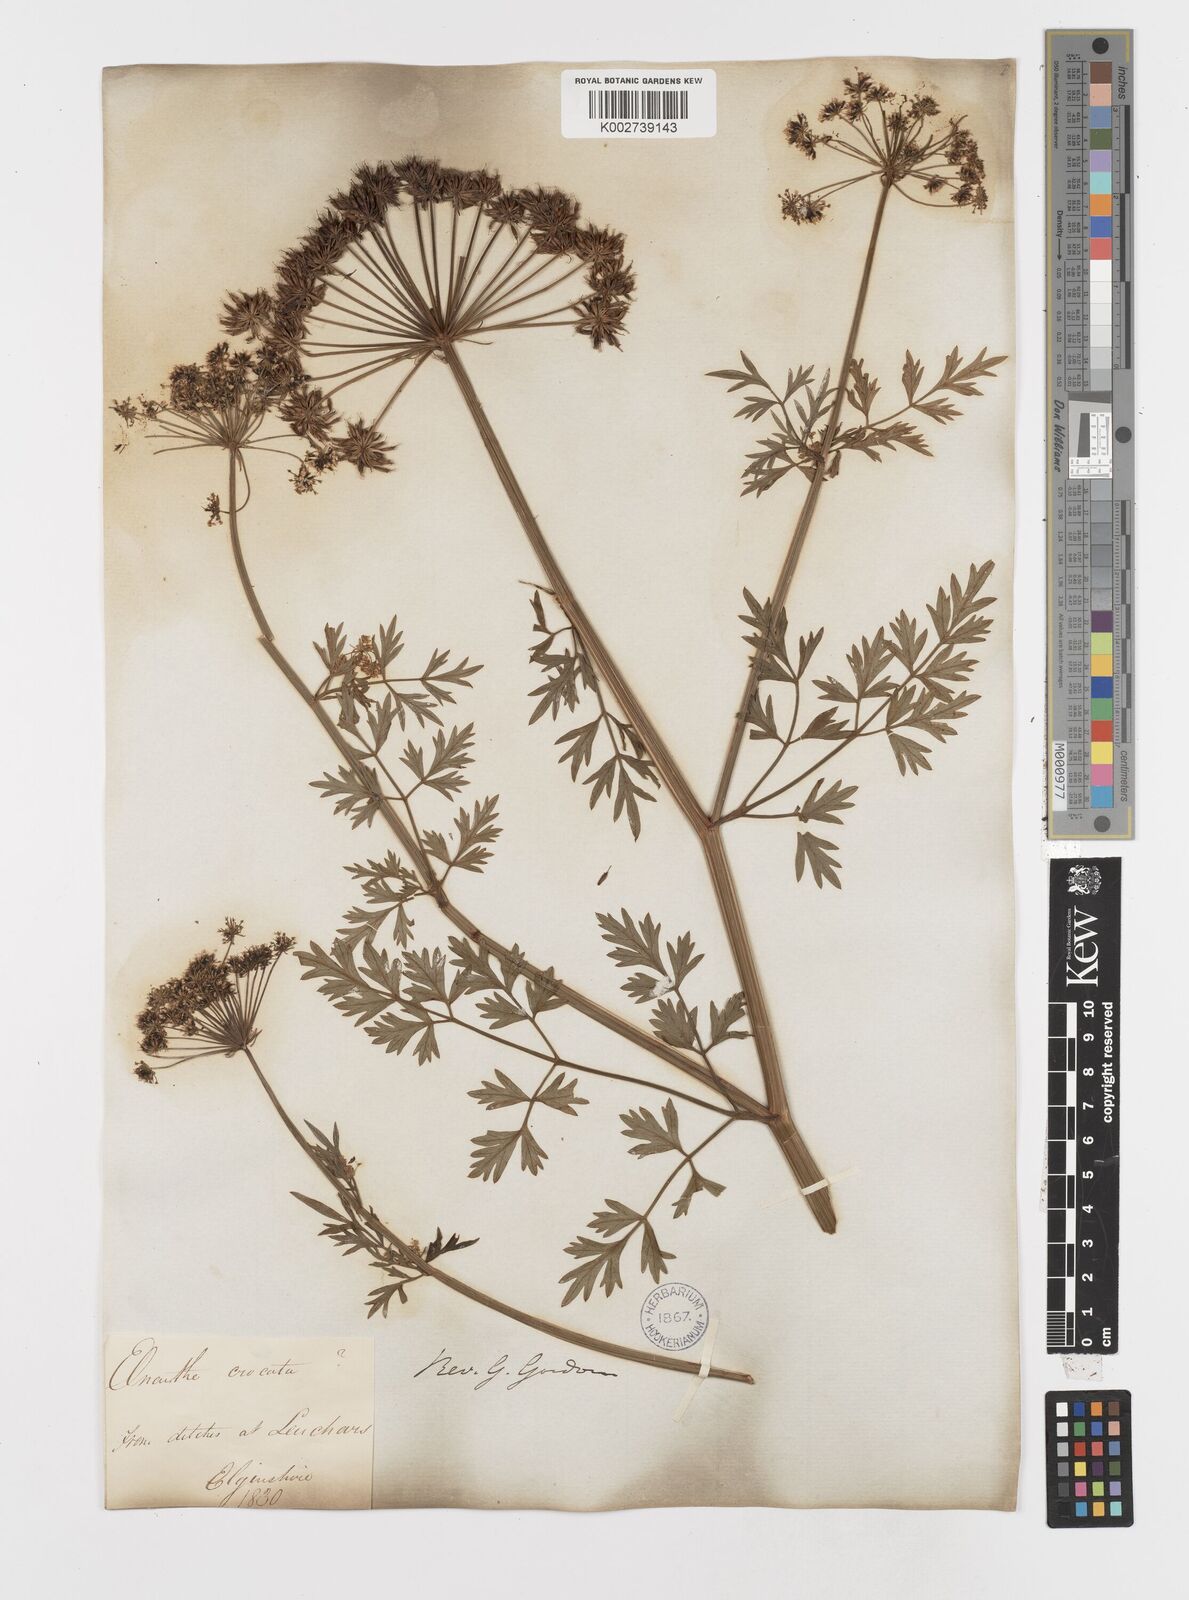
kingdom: Plantae
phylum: Tracheophyta
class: Magnoliopsida
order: Apiales
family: Apiaceae
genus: Oenanthe
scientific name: Oenanthe crocata
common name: Hemlock water-dropwort
